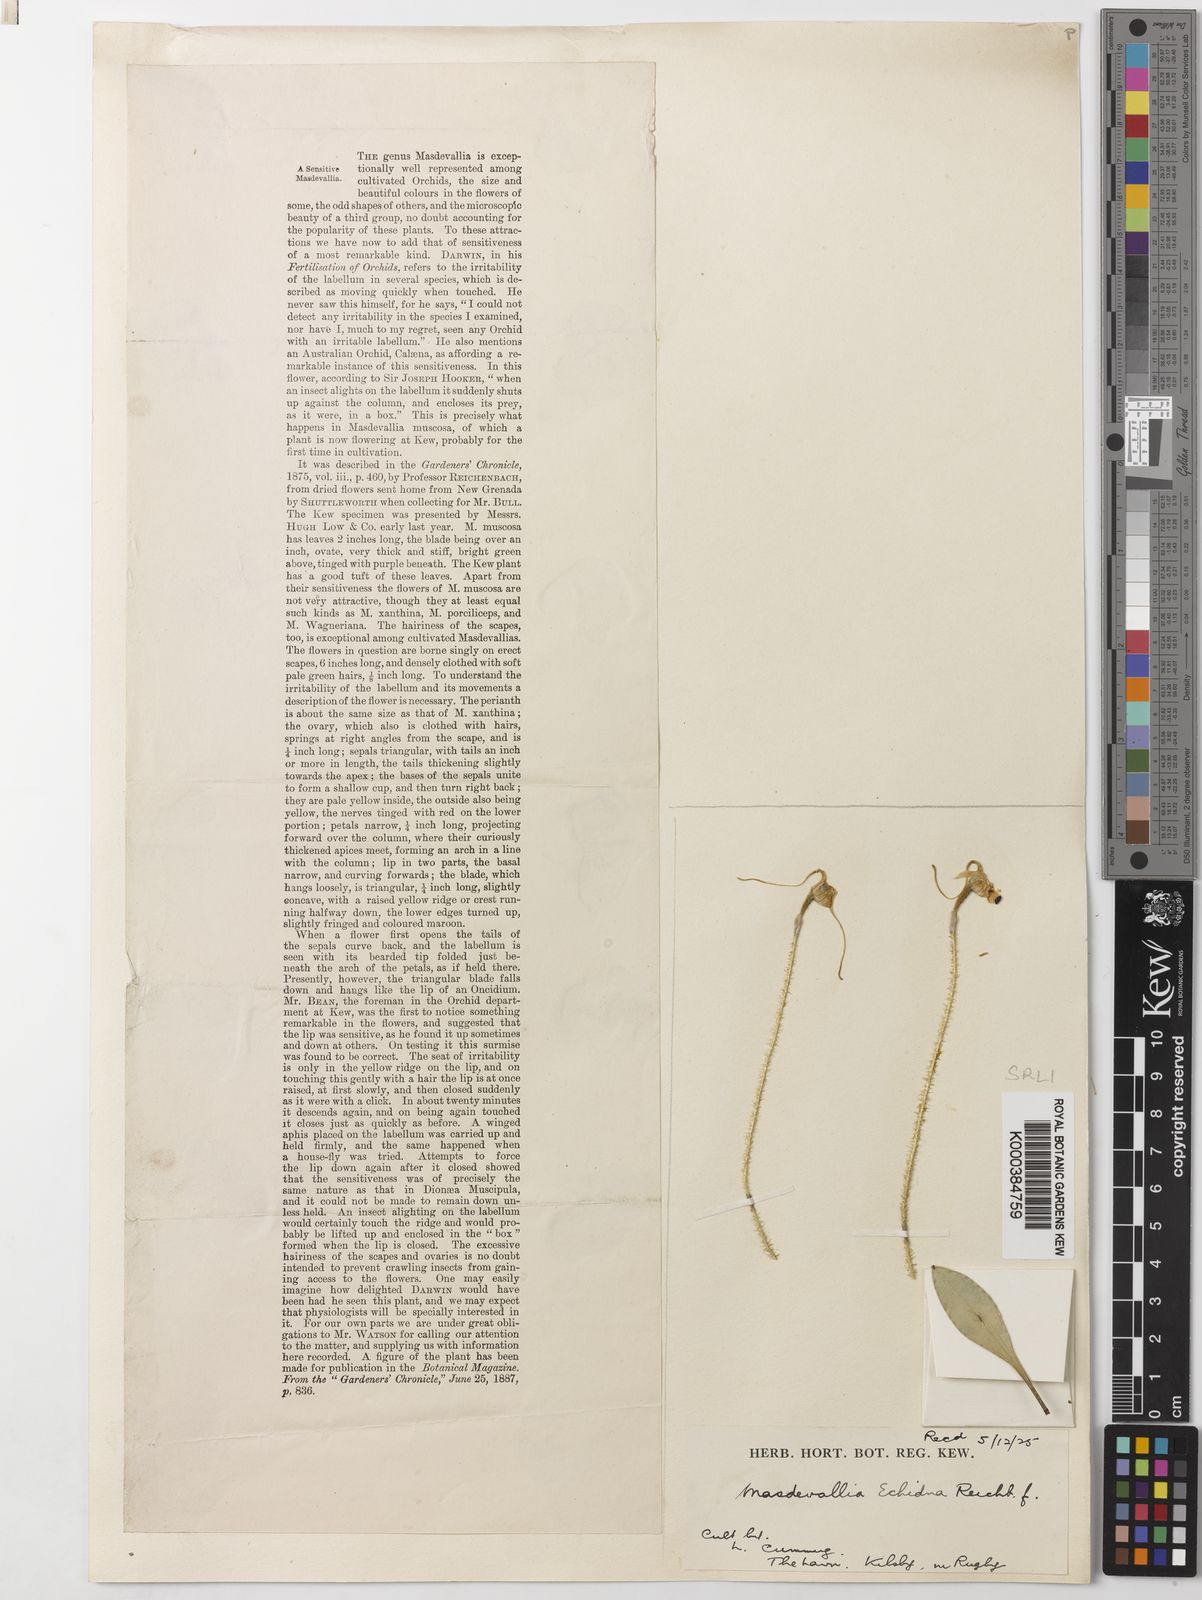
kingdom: Plantae
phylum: Tracheophyta
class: Liliopsida
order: Asparagales
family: Orchidaceae
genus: Porroglossum
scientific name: Porroglossum muscosum
